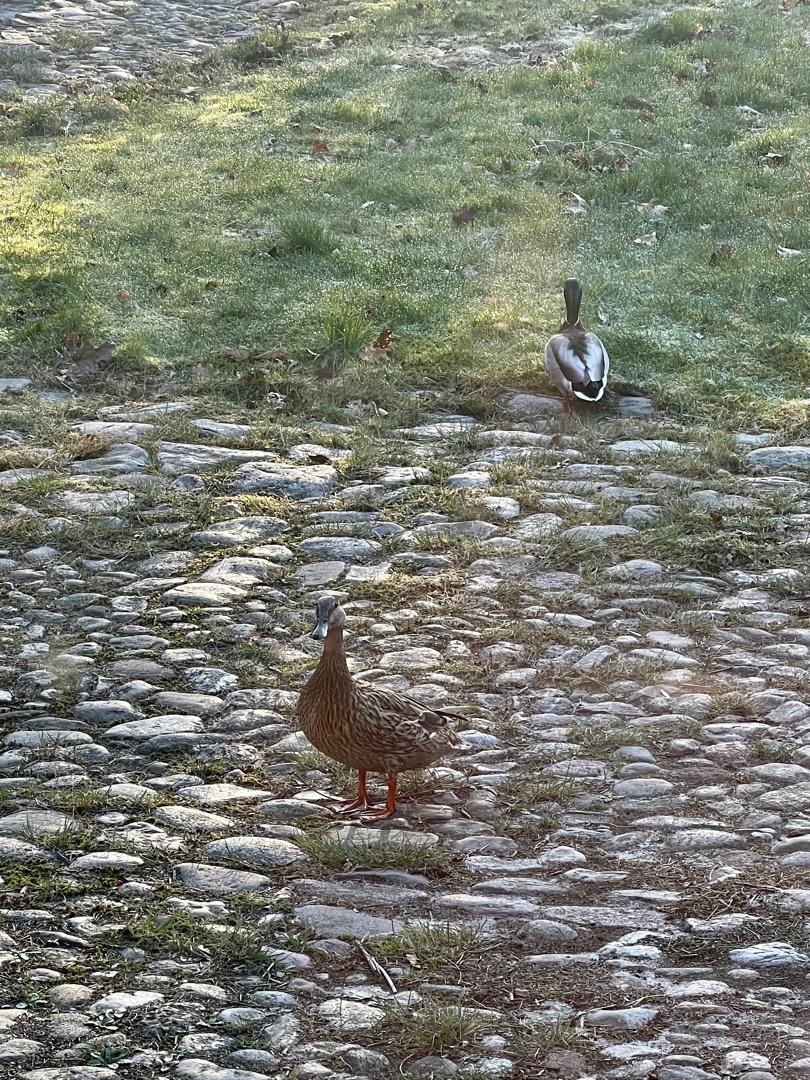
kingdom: Animalia
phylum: Chordata
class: Aves
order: Anseriformes
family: Anatidae
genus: Anas
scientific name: Anas platyrhynchos
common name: Gråand
